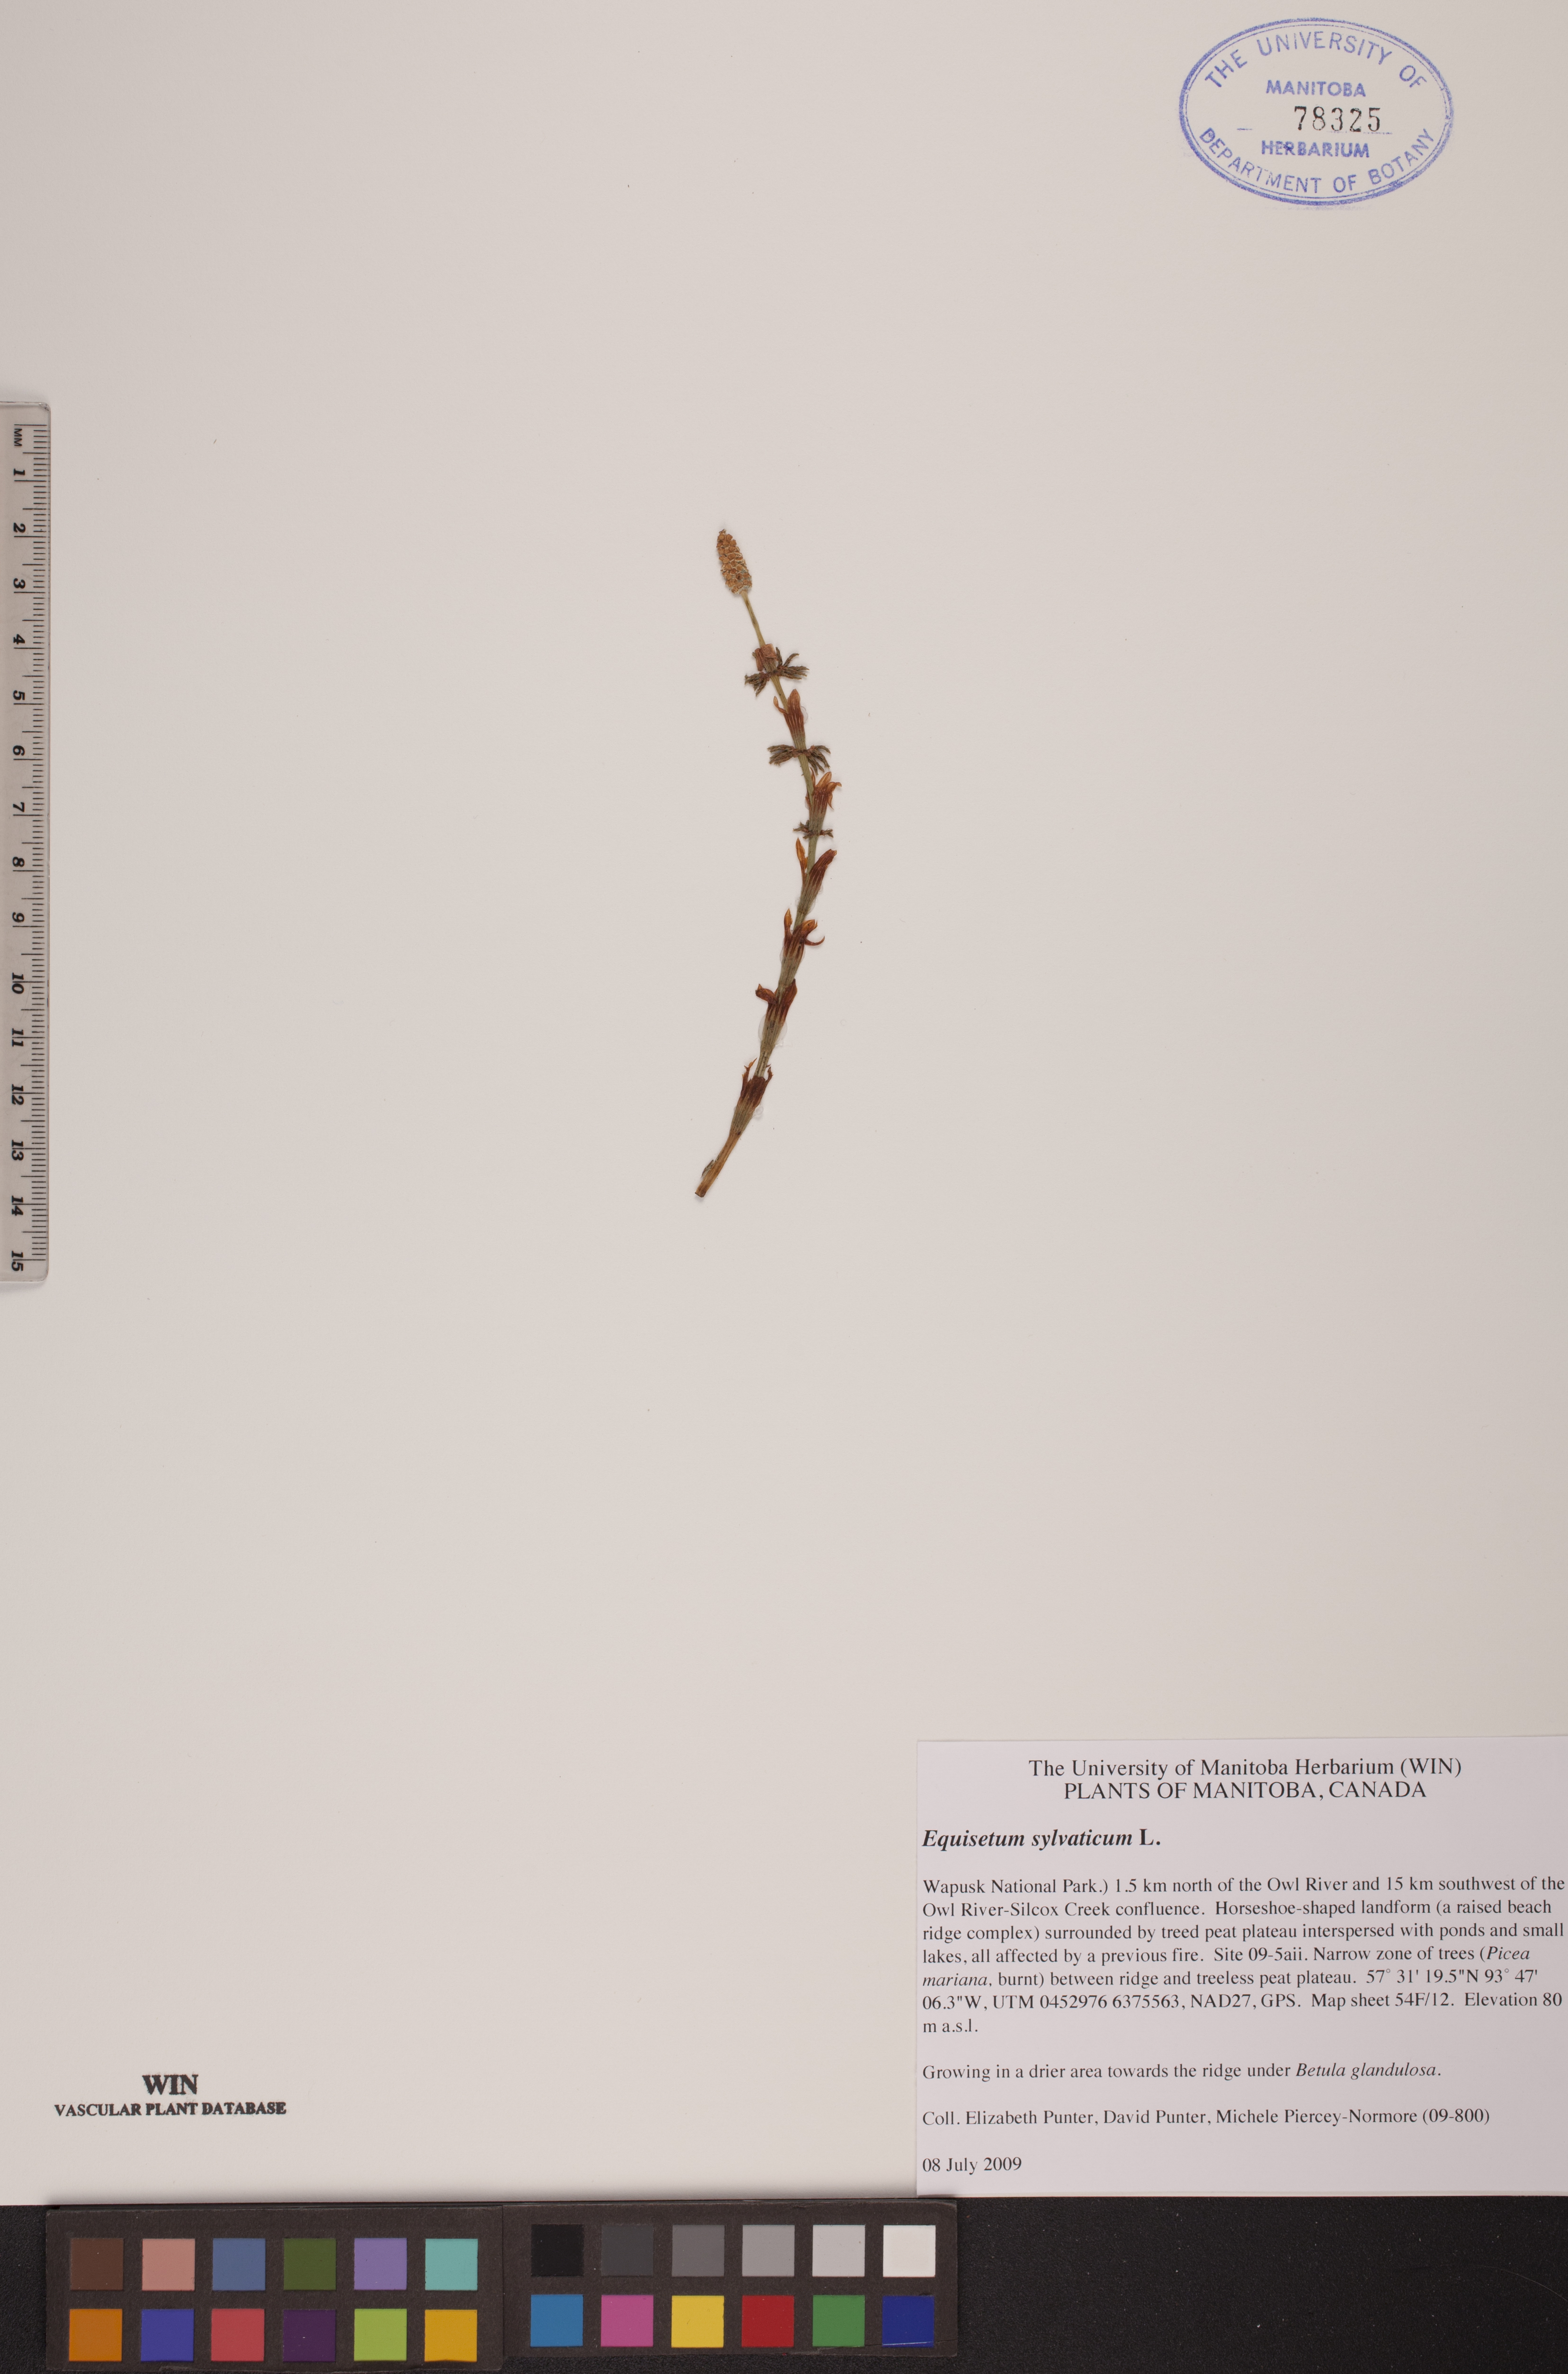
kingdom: Plantae
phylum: Tracheophyta
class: Polypodiopsida
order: Equisetales
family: Equisetaceae
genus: Equisetum
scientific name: Equisetum sylvaticum
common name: Wood horsetail
